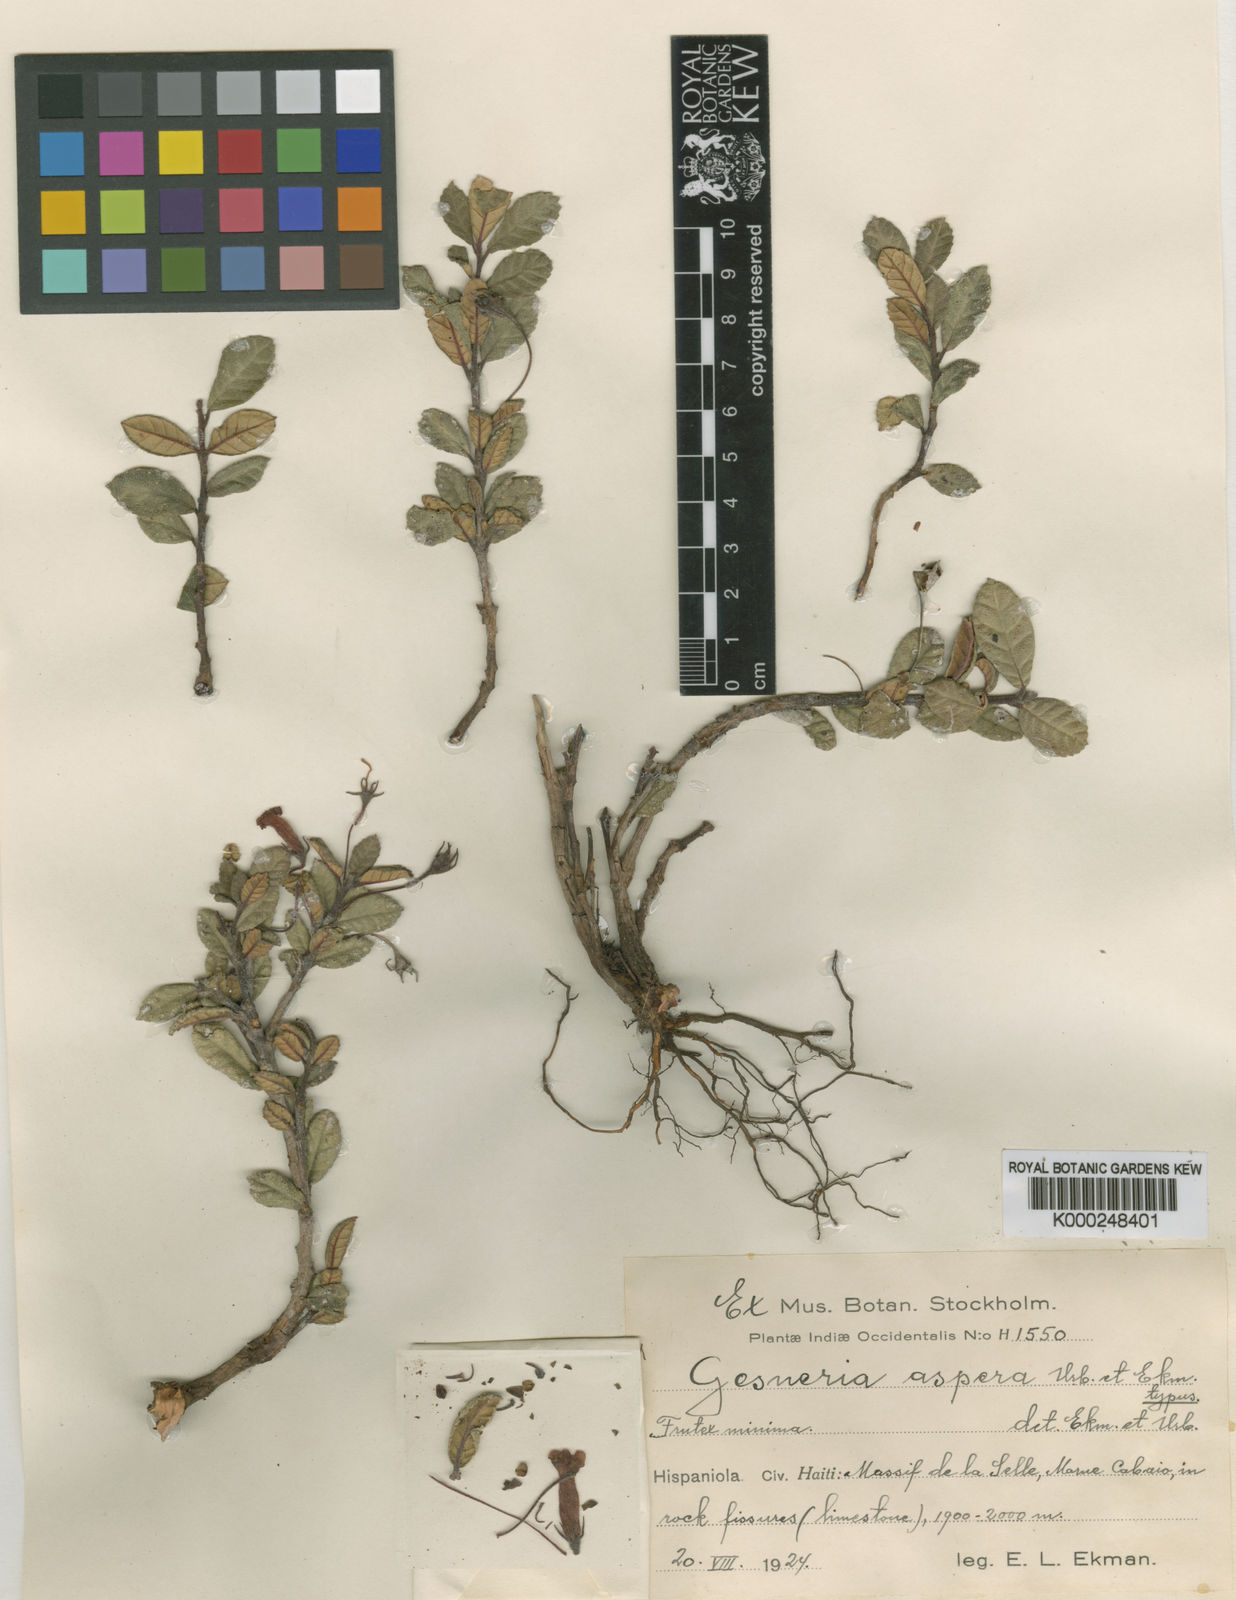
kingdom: Plantae
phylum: Tracheophyta
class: Magnoliopsida
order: Lamiales
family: Gesneriaceae
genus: Gesneria
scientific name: Gesneria aspera
